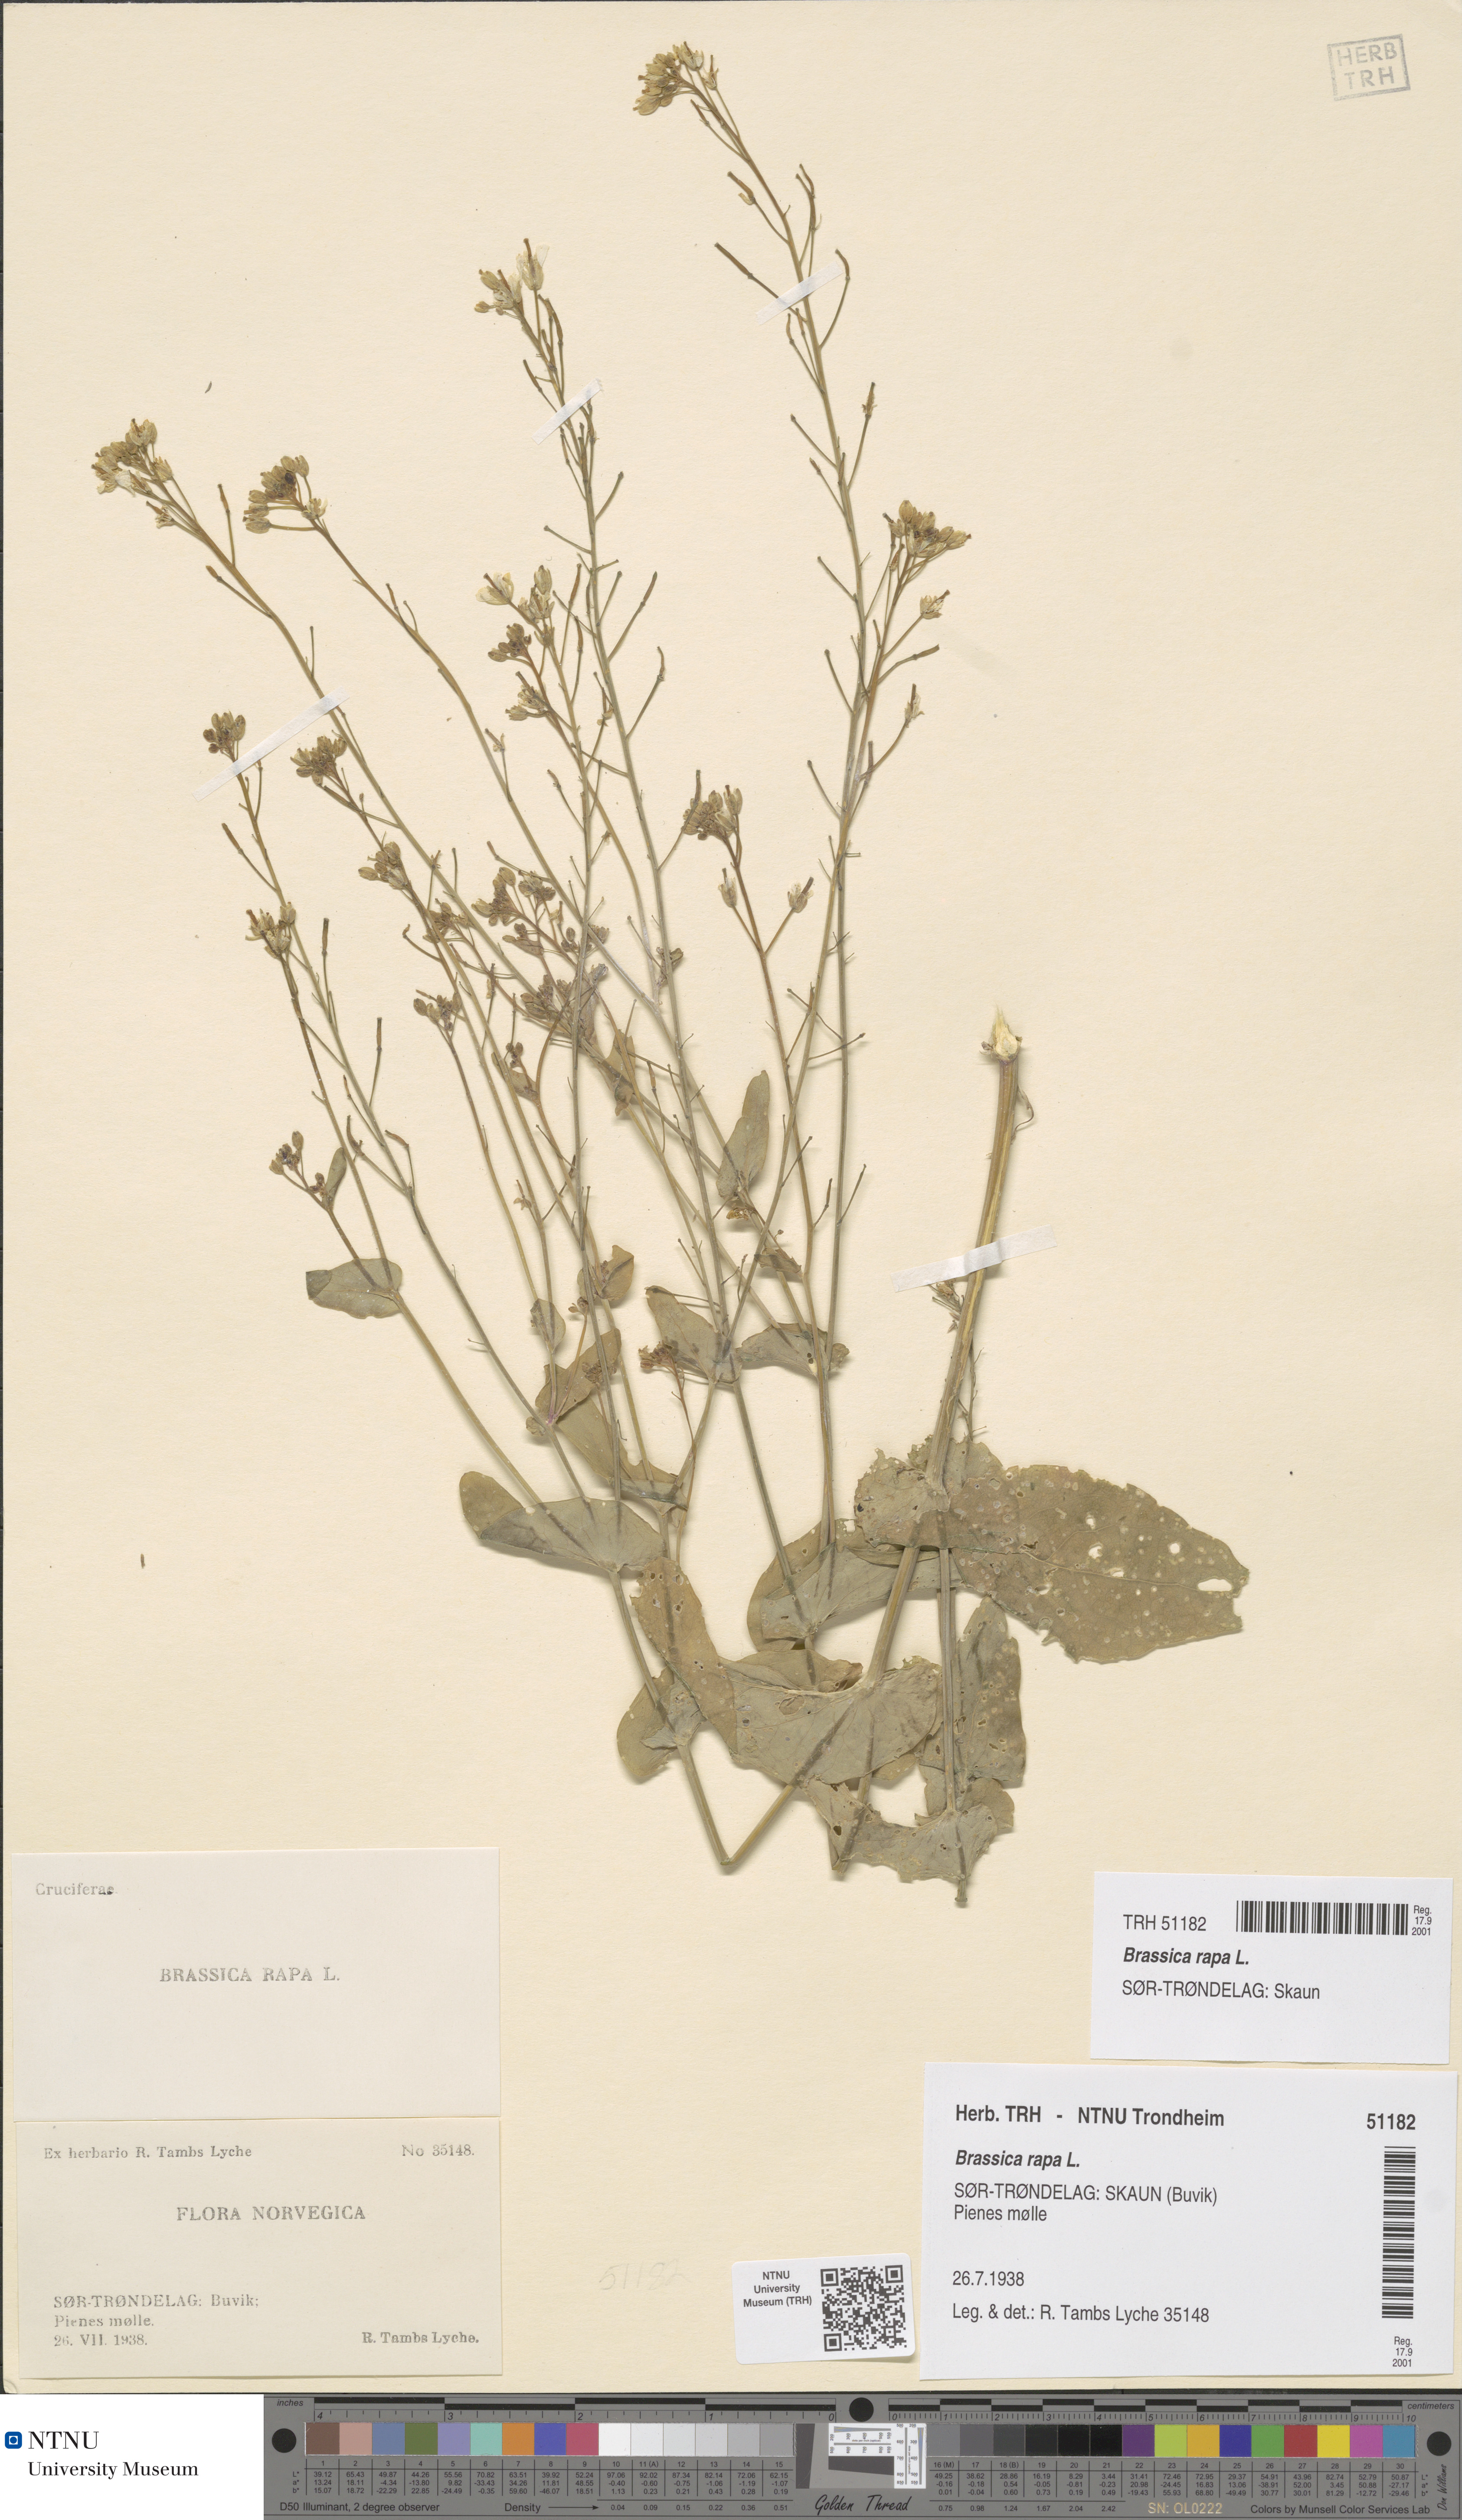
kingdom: Plantae
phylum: Tracheophyta
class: Magnoliopsida
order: Brassicales
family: Brassicaceae
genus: Brassica
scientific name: Brassica rapa
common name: Field mustard
